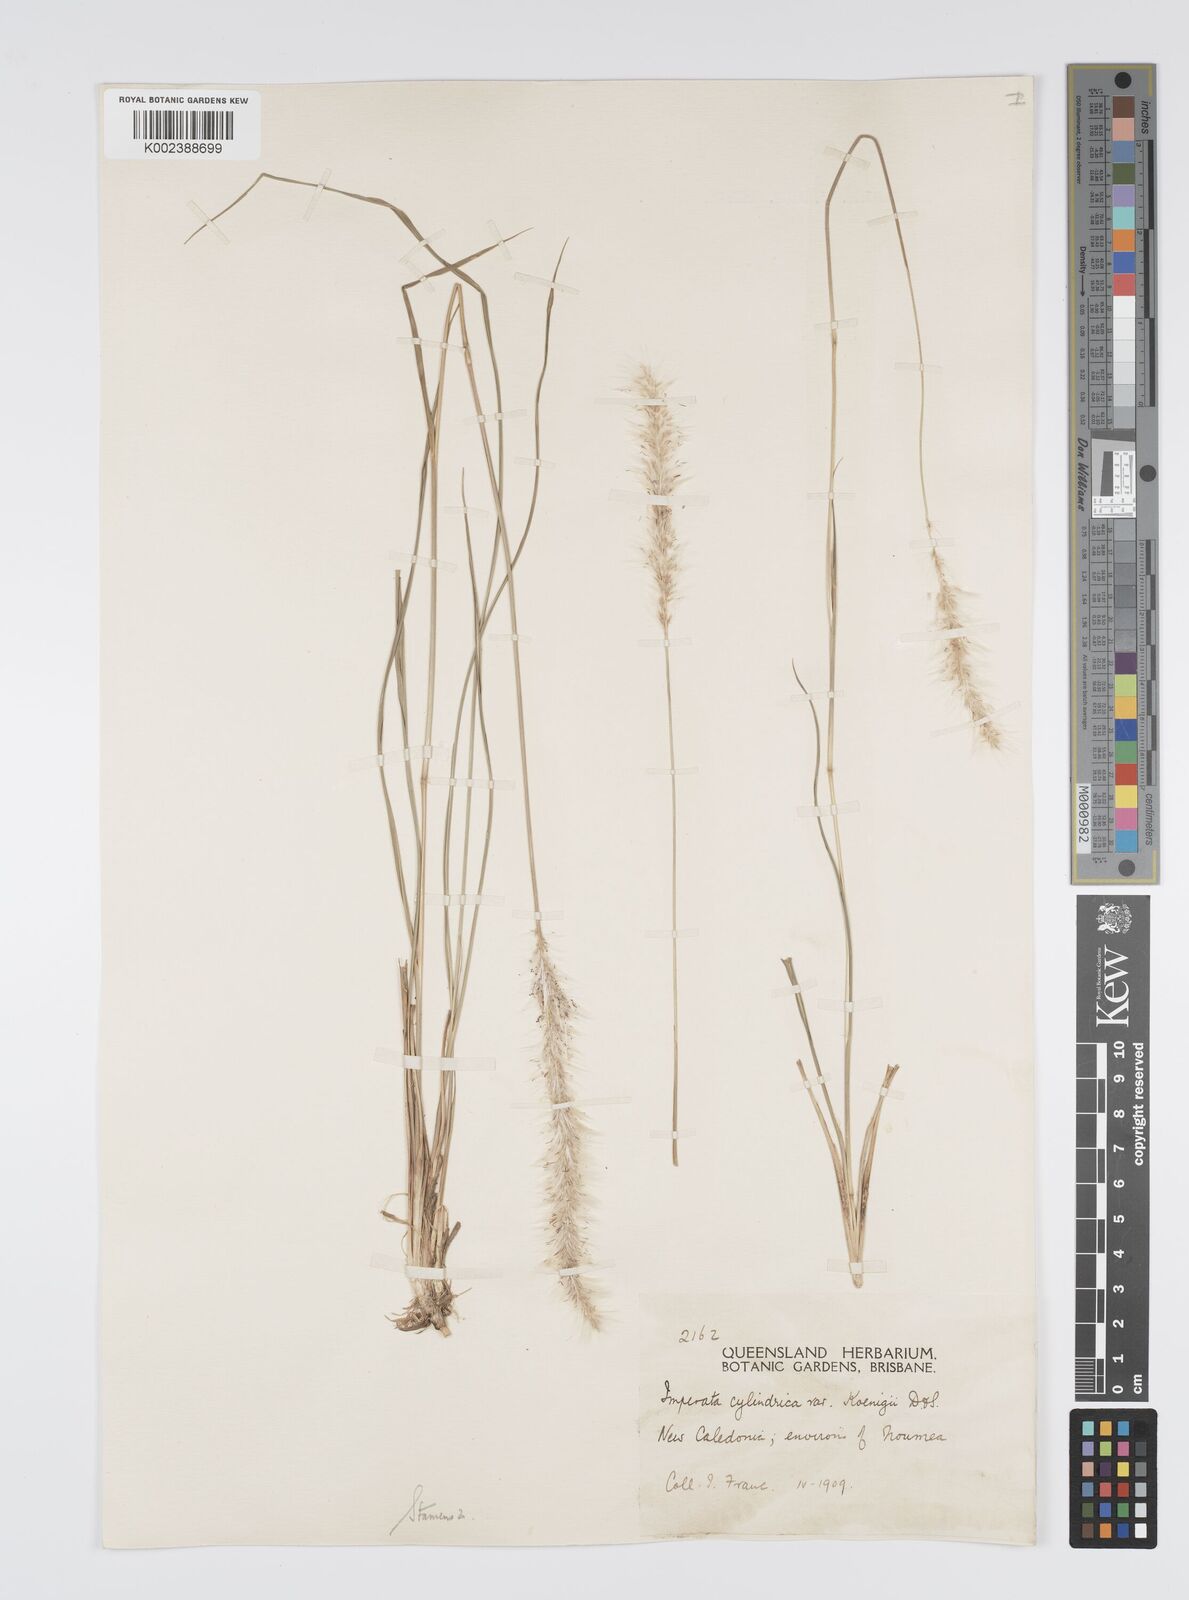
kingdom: Plantae
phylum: Tracheophyta
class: Liliopsida
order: Poales
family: Poaceae
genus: Imperata
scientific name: Imperata cylindrica
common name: Cogongrass
